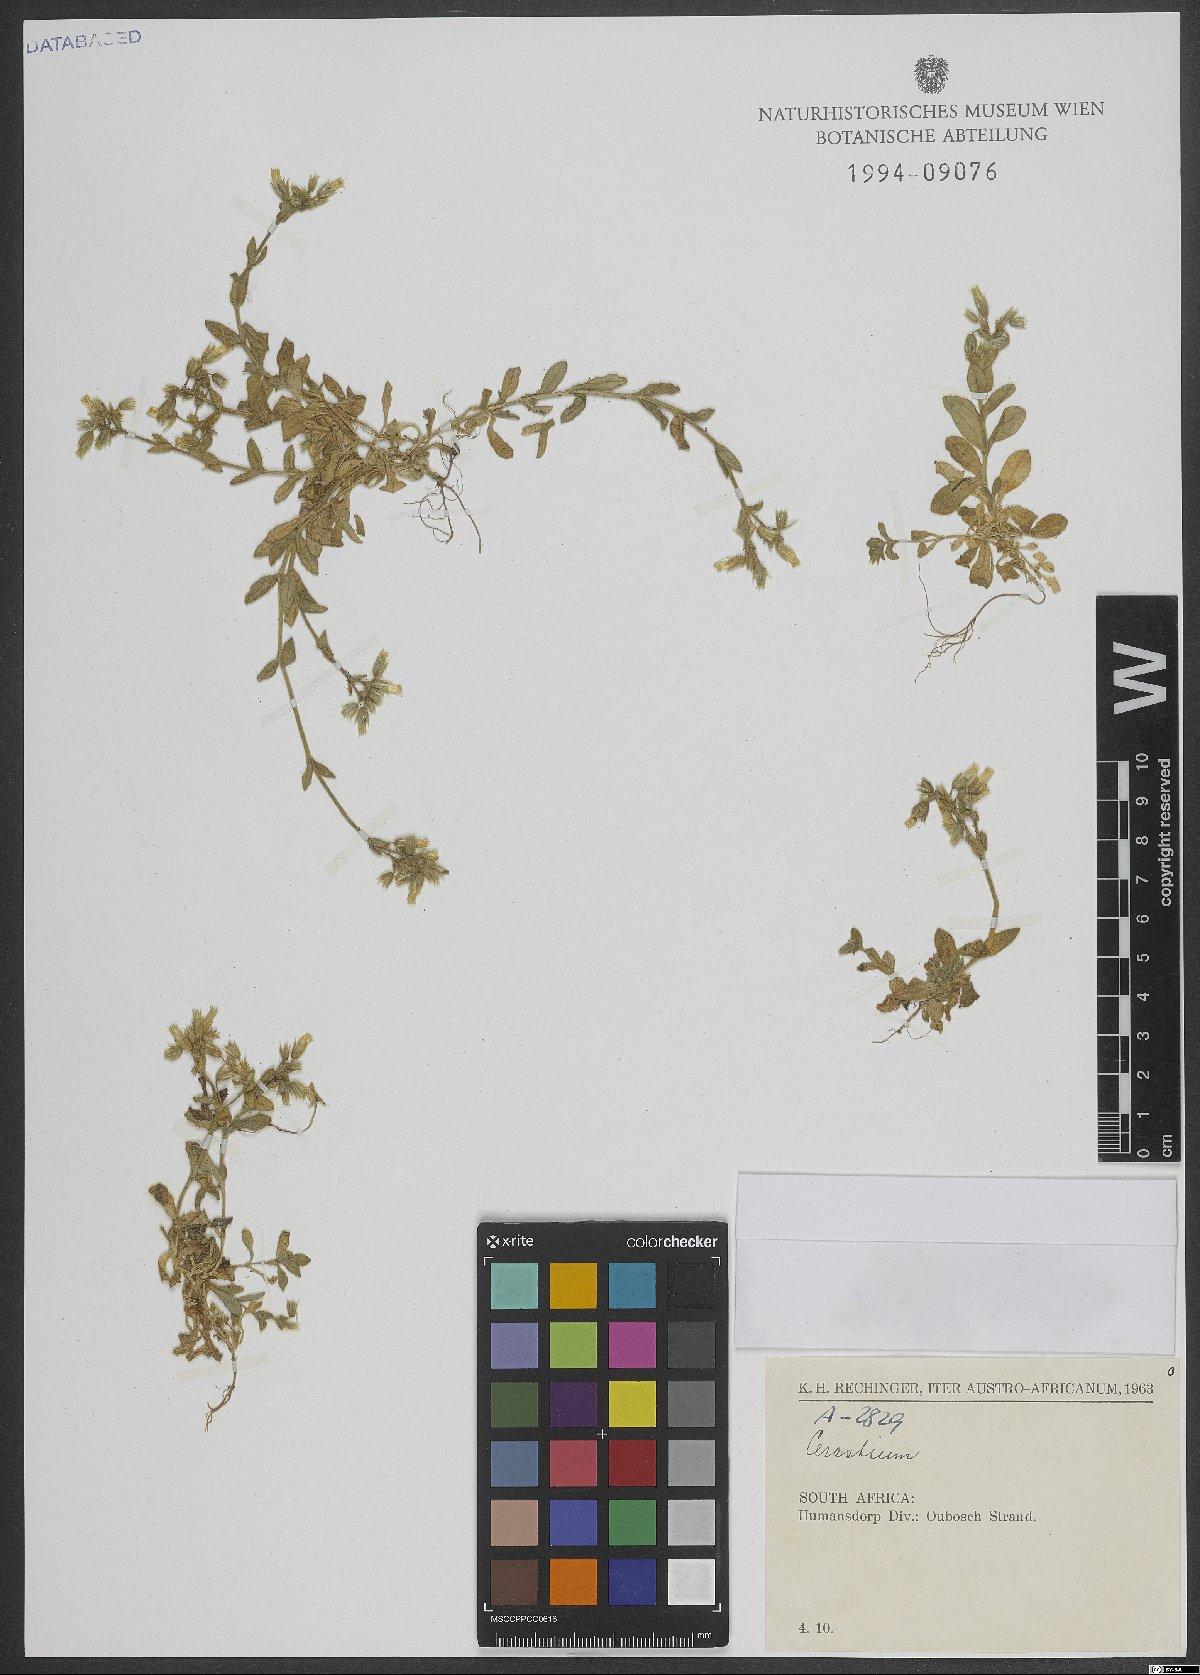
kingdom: Plantae
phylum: Tracheophyta
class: Magnoliopsida
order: Caryophyllales
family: Caryophyllaceae
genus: Cerastium
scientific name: Cerastium
